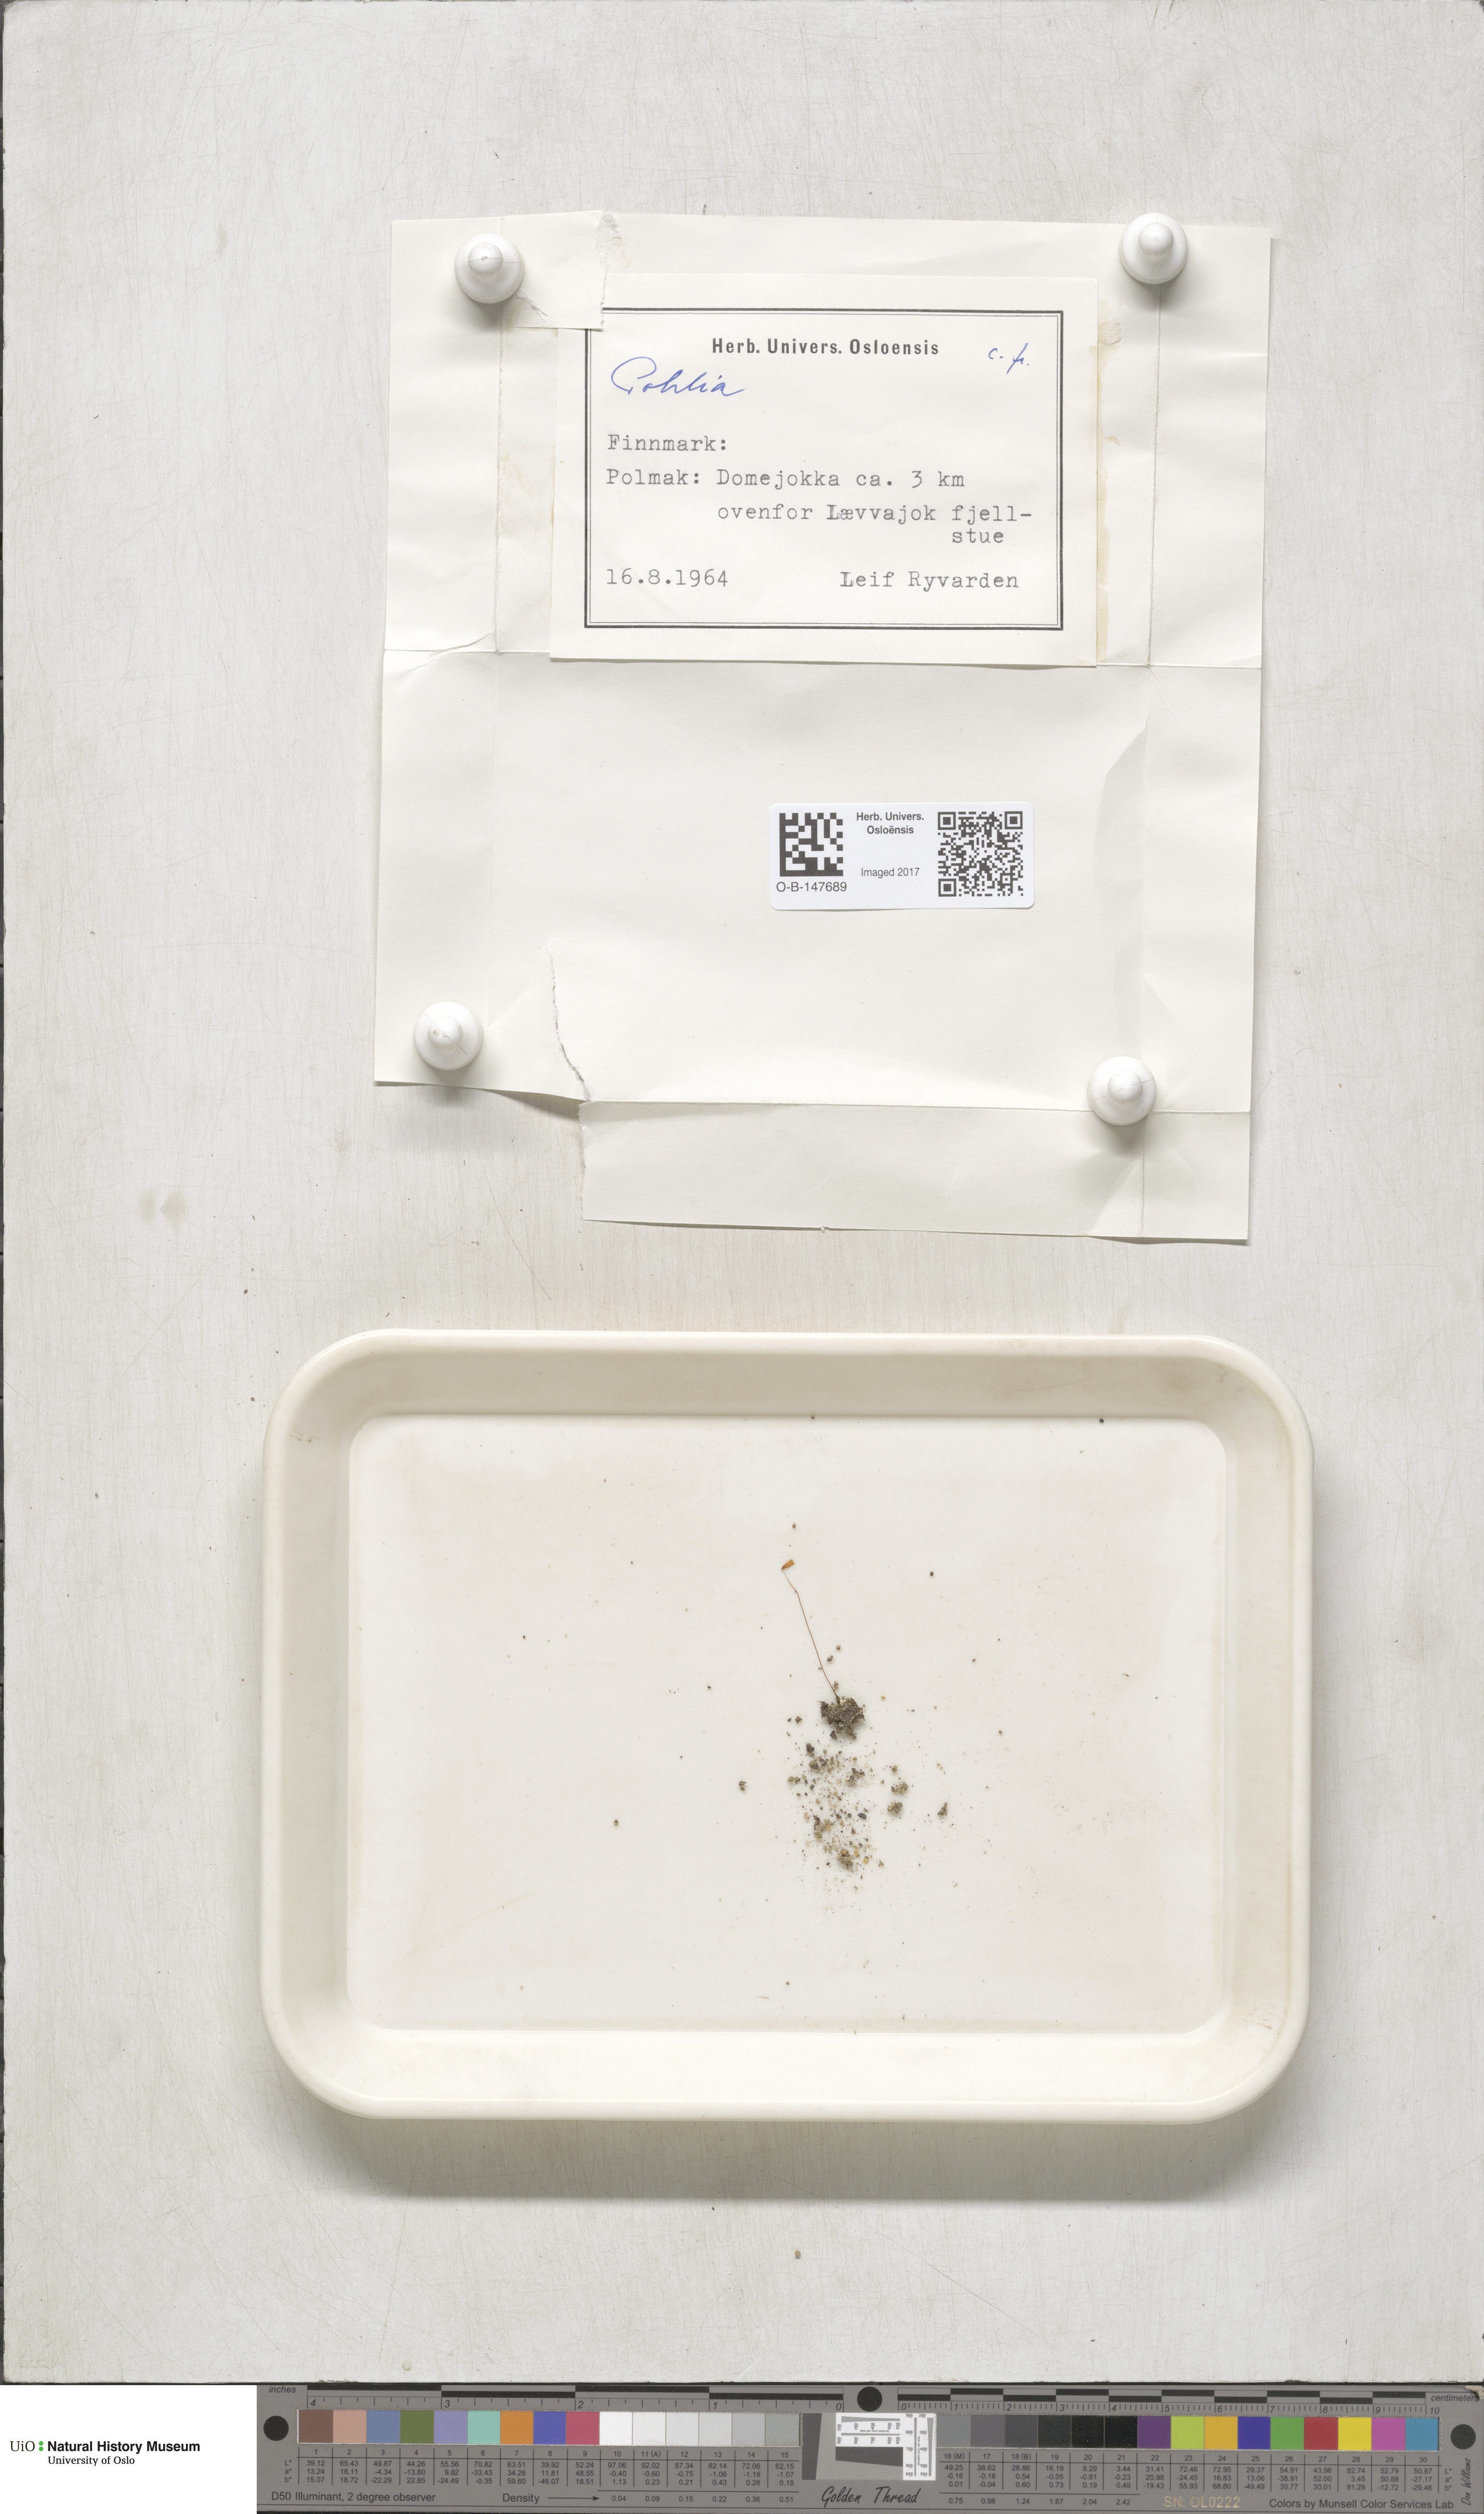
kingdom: Plantae
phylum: Bryophyta
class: Bryopsida
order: Bryales
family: Mniaceae
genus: Pohlia
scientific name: Pohlia
